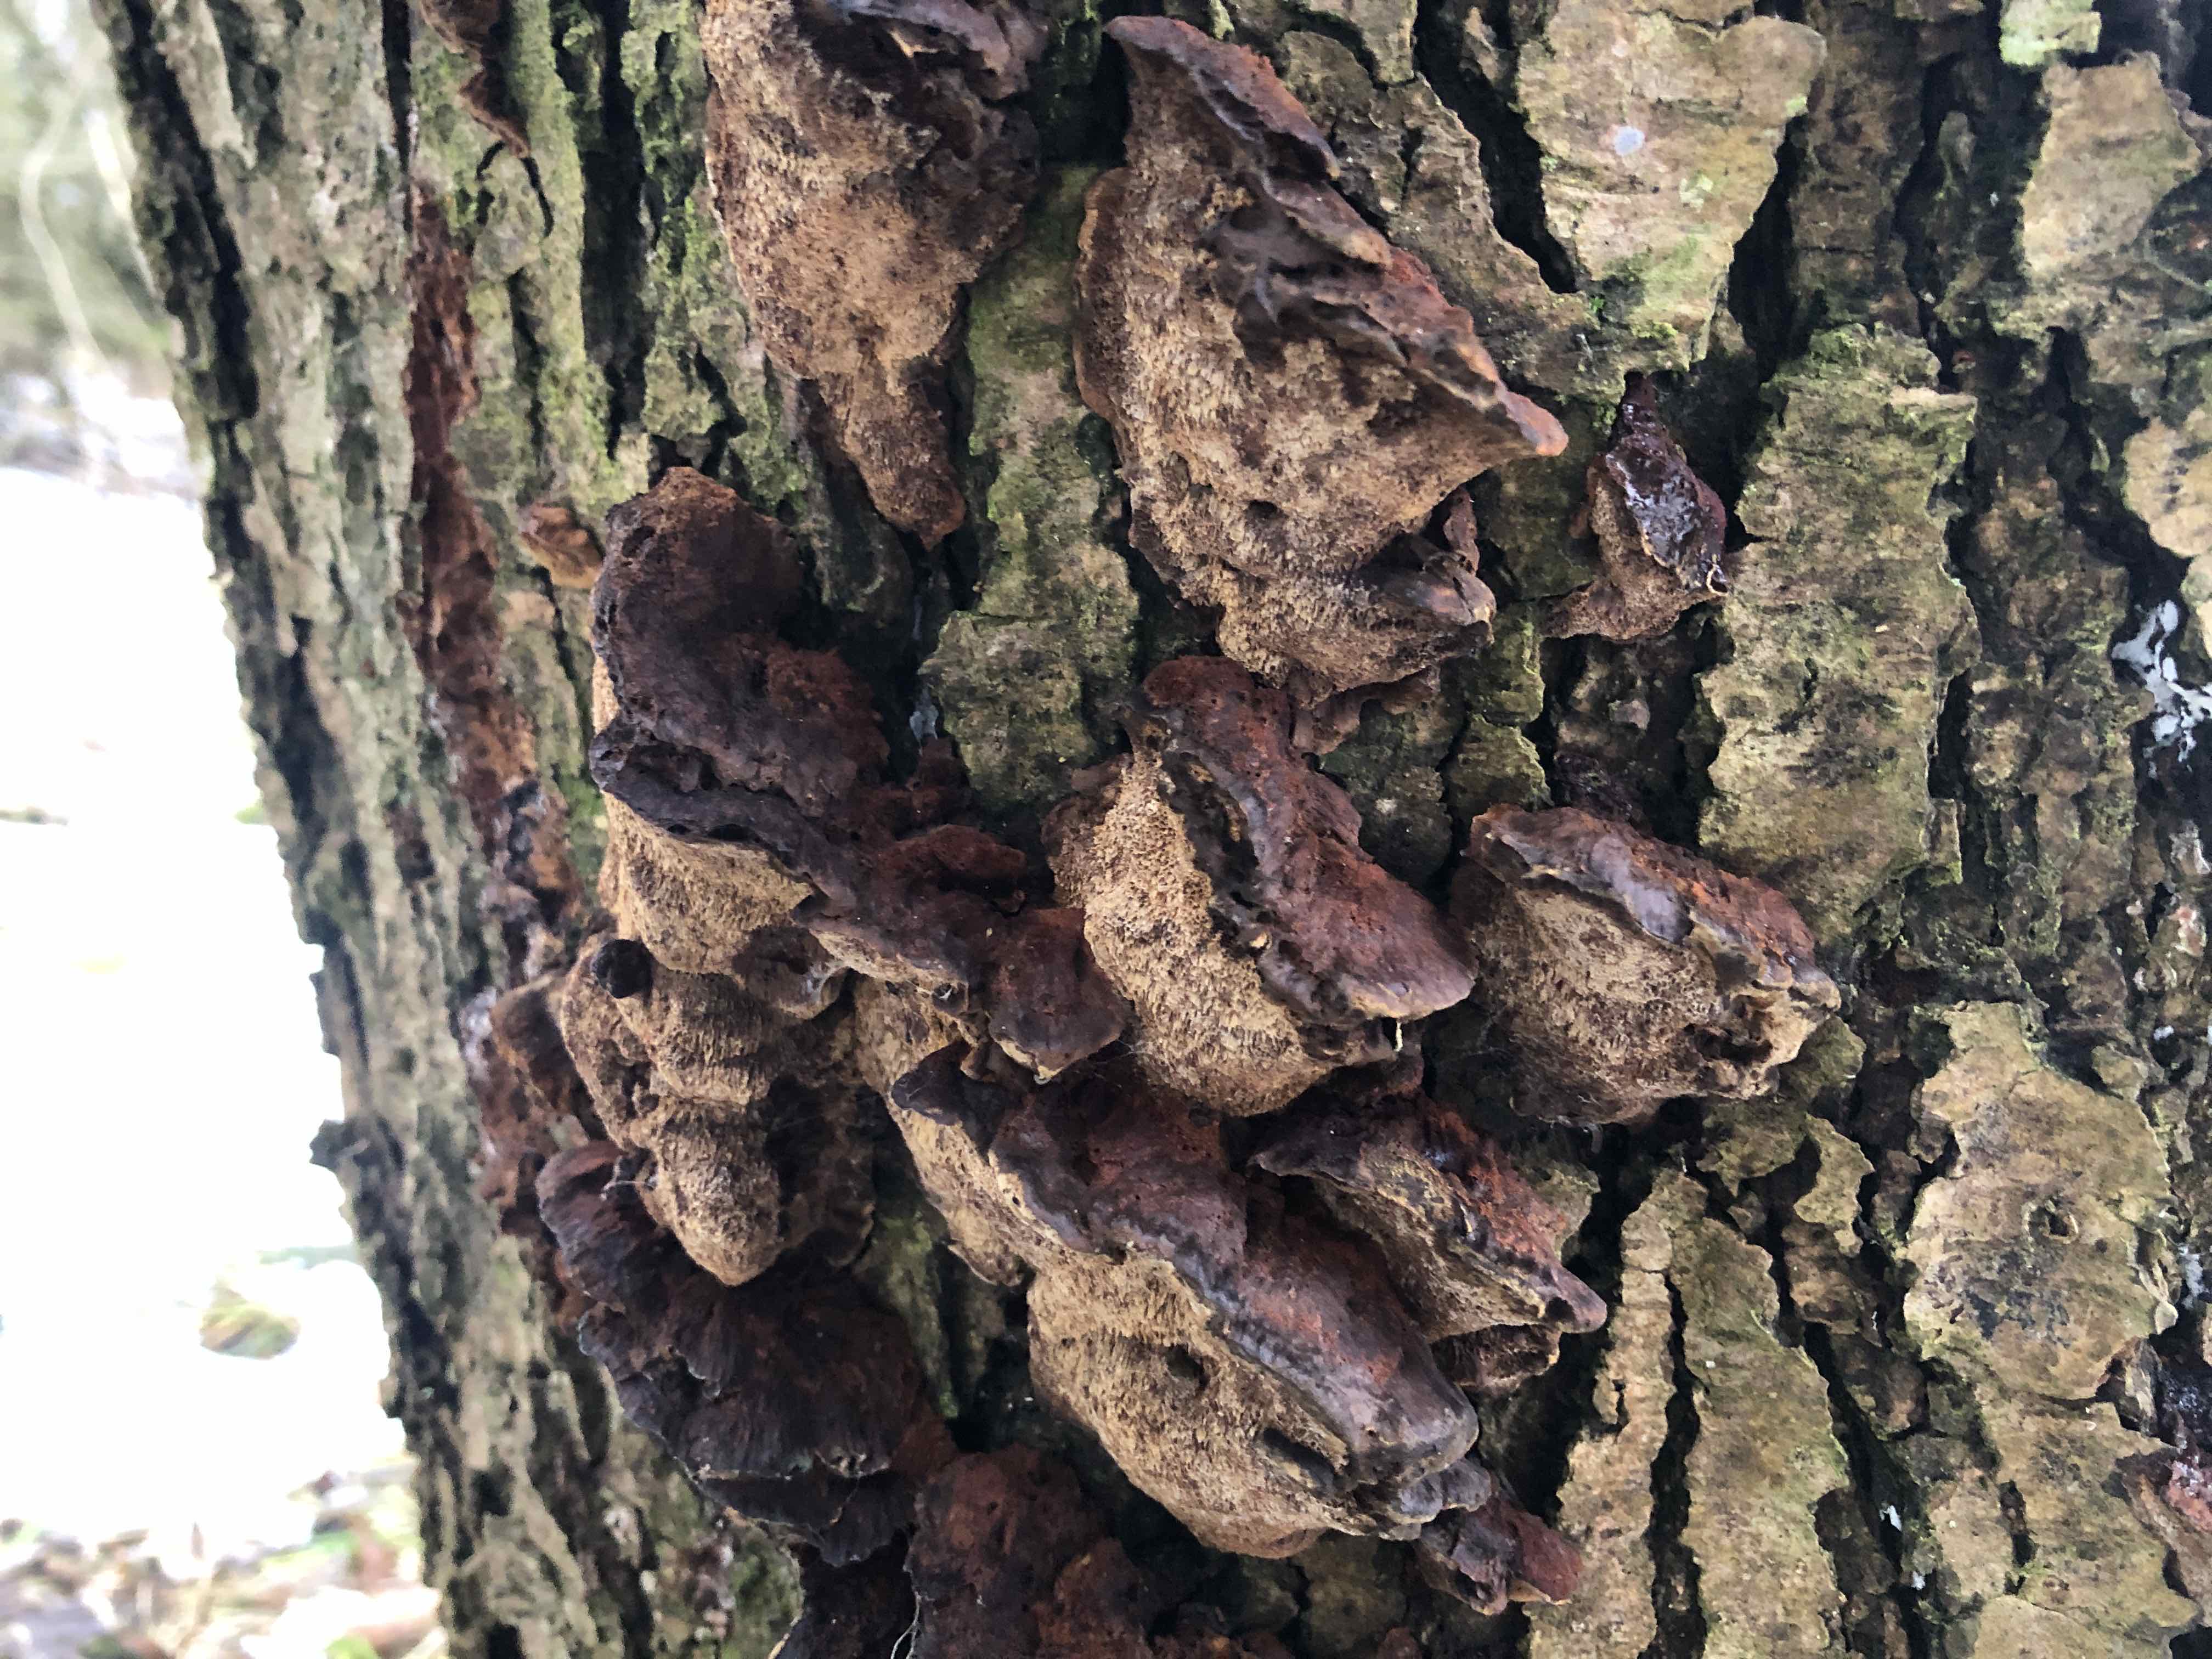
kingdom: Fungi
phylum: Basidiomycota
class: Agaricomycetes
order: Hymenochaetales
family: Hymenochaetaceae
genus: Xanthoporia
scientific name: Xanthoporia radiata
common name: elle-spejlporesvamp
